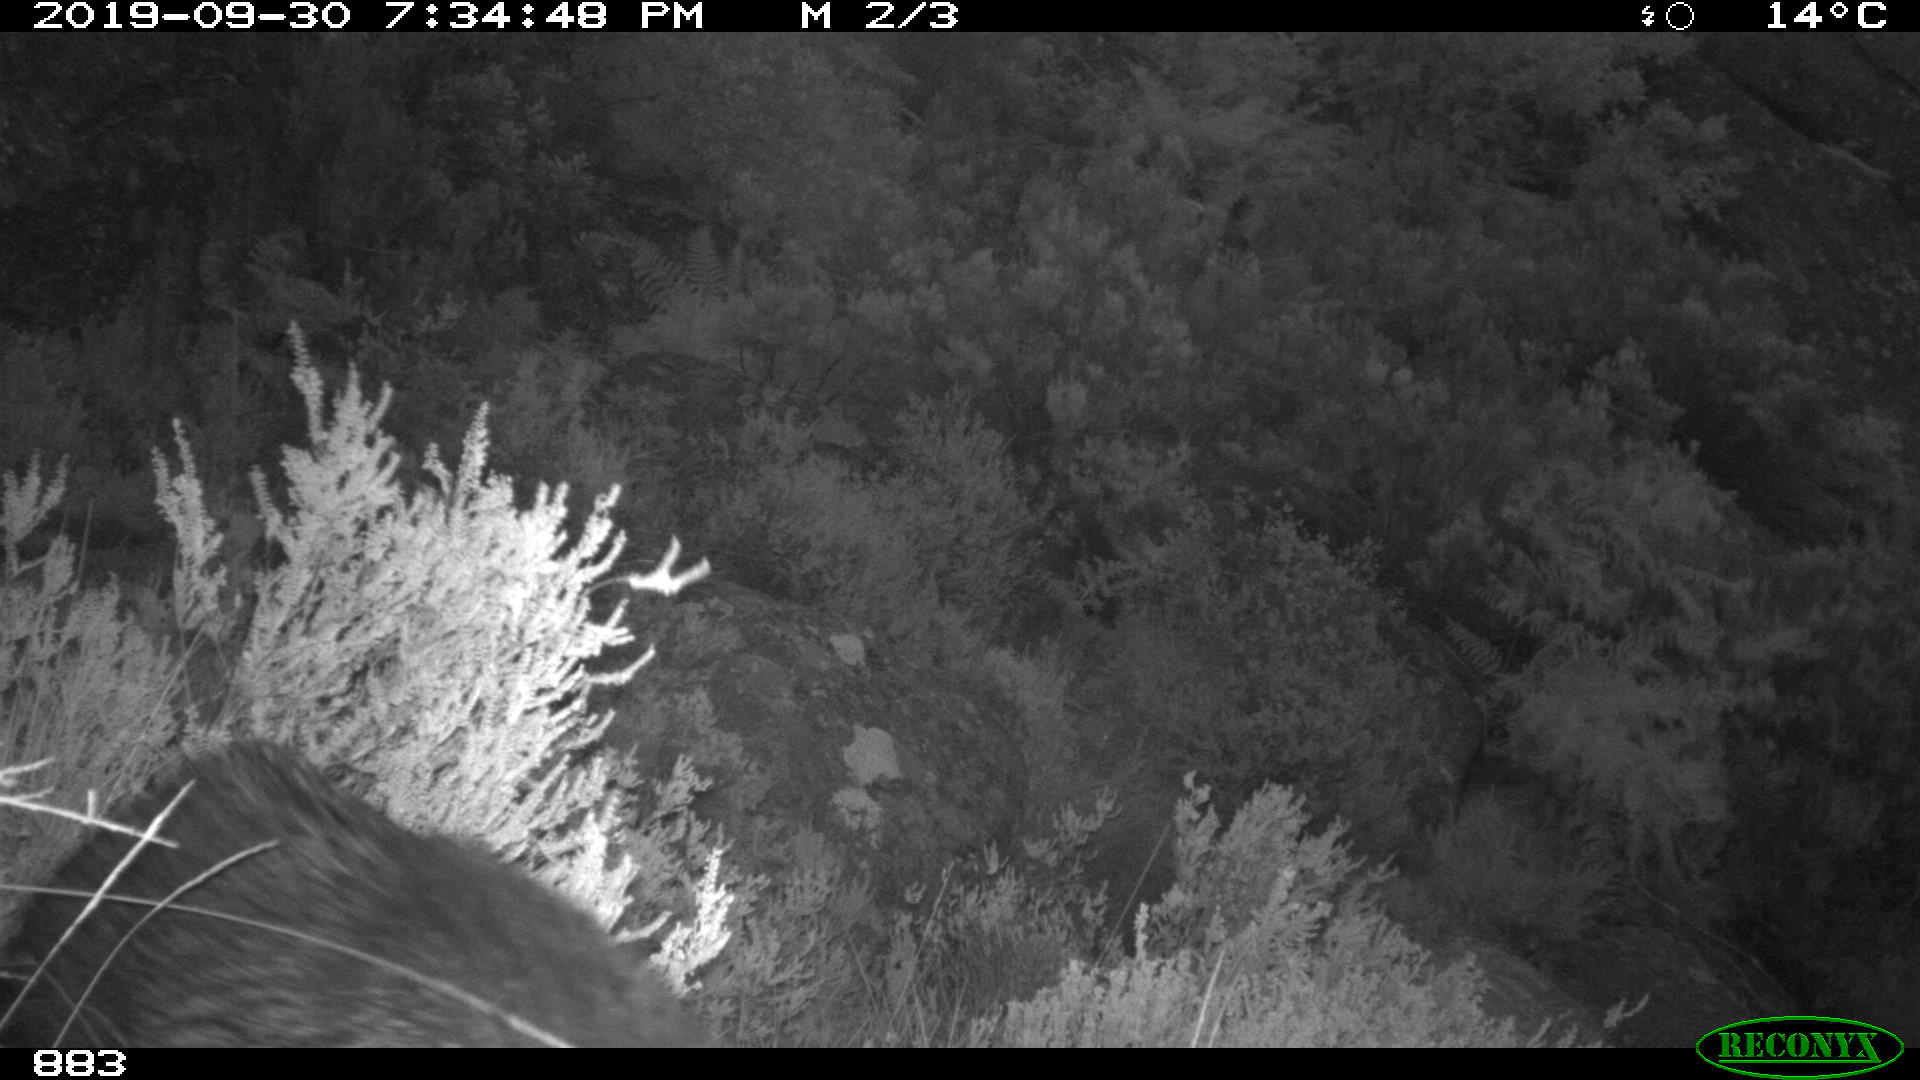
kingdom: Animalia
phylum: Chordata
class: Mammalia
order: Artiodactyla
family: Suidae
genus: Sus
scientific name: Sus scrofa
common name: Wild boar
